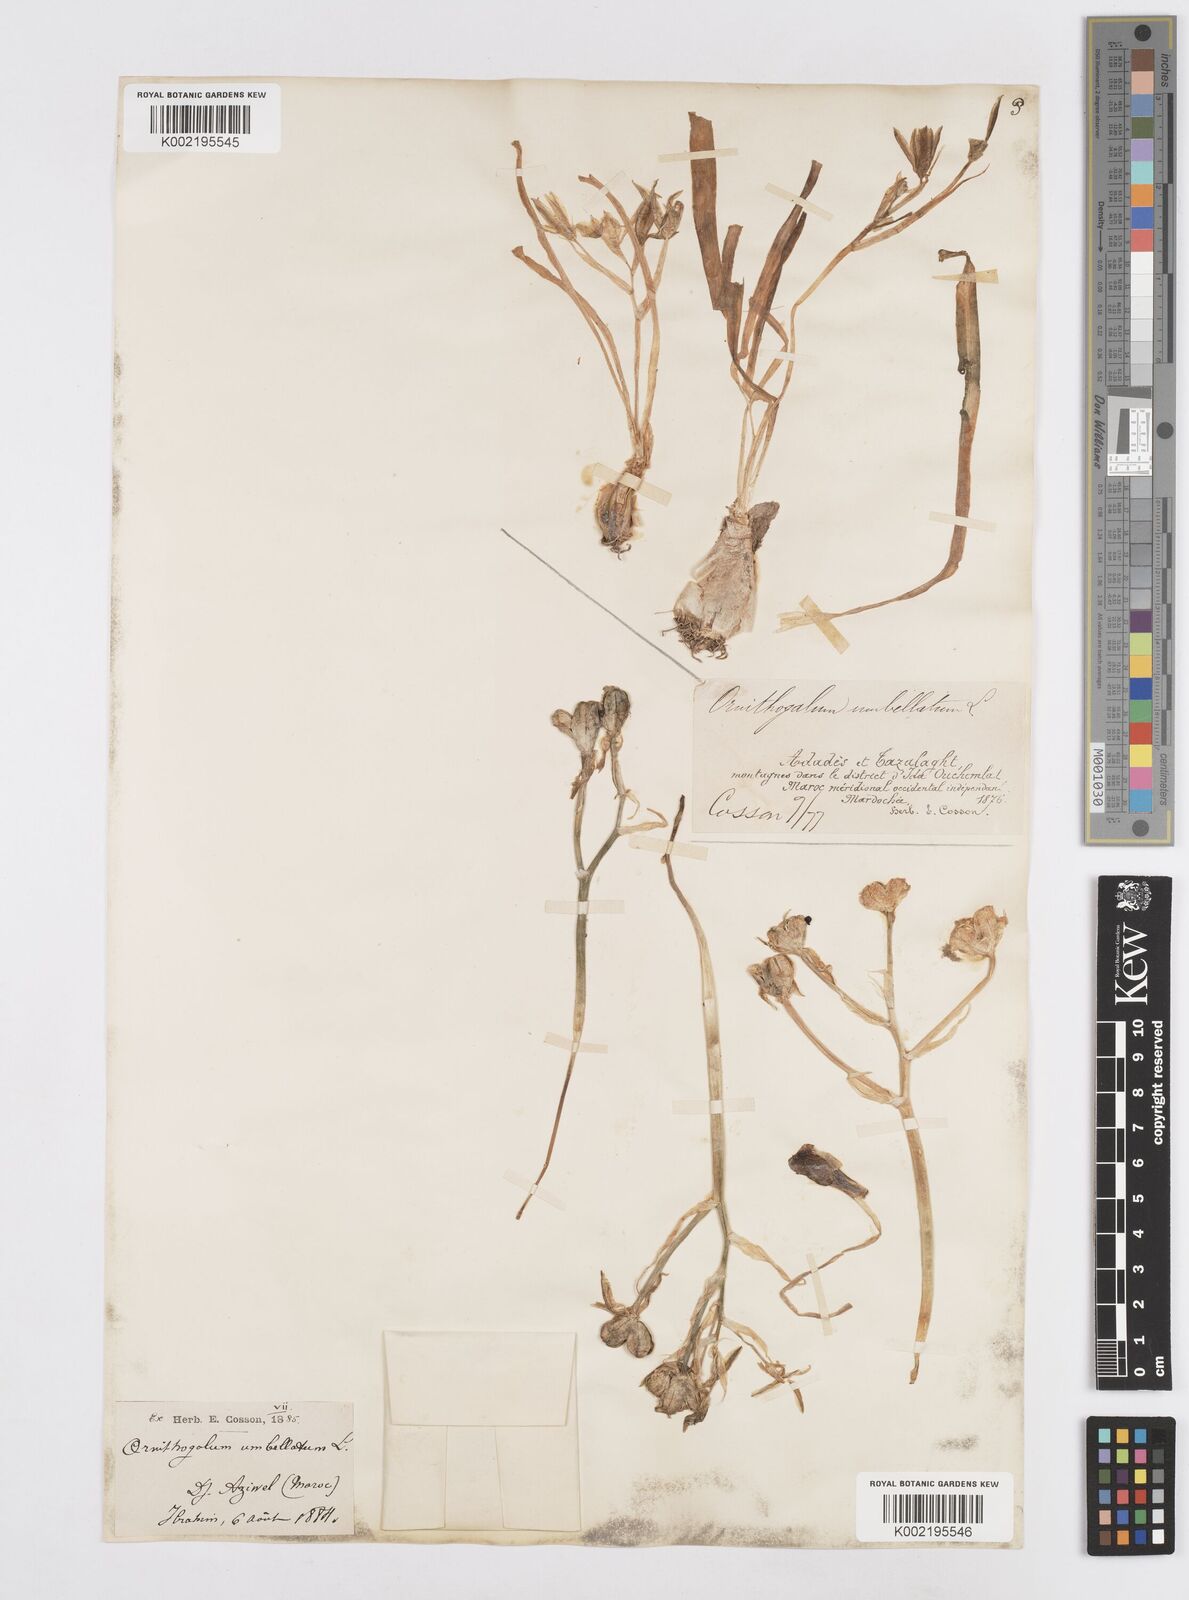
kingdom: Plantae
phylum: Tracheophyta
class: Liliopsida
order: Asparagales
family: Asparagaceae
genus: Ornithogalum
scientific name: Ornithogalum umbellatum
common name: Garden star-of-bethlehem
